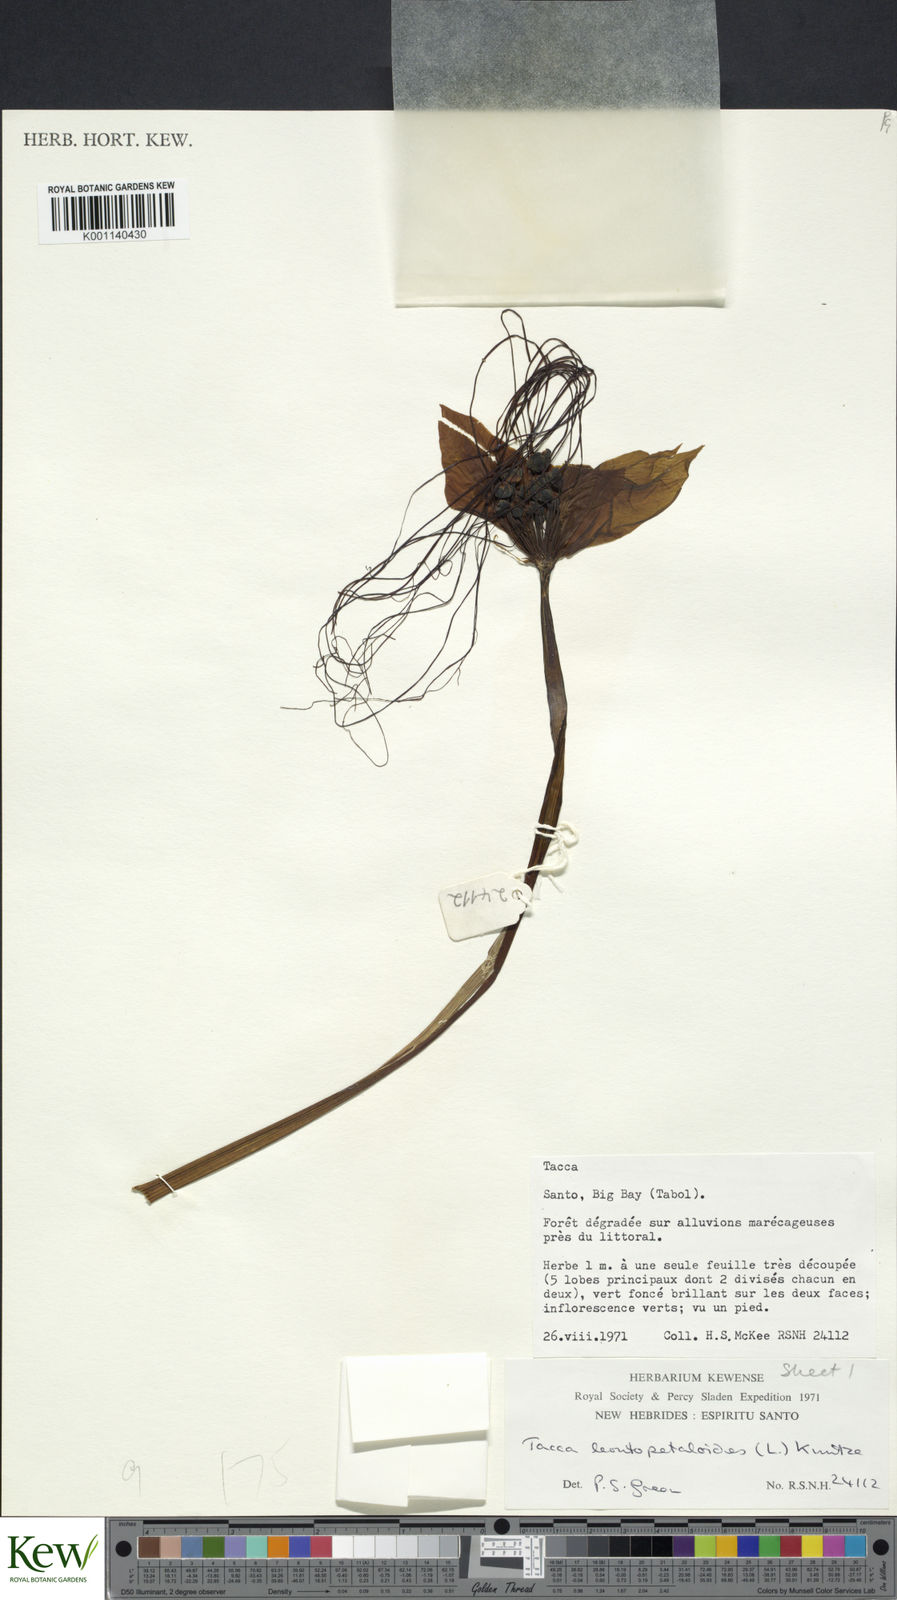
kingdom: Plantae
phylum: Tracheophyta
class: Liliopsida
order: Dioscoreales
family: Dioscoreaceae
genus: Tacca
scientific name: Tacca leontopetaloides
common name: Arrowroot
